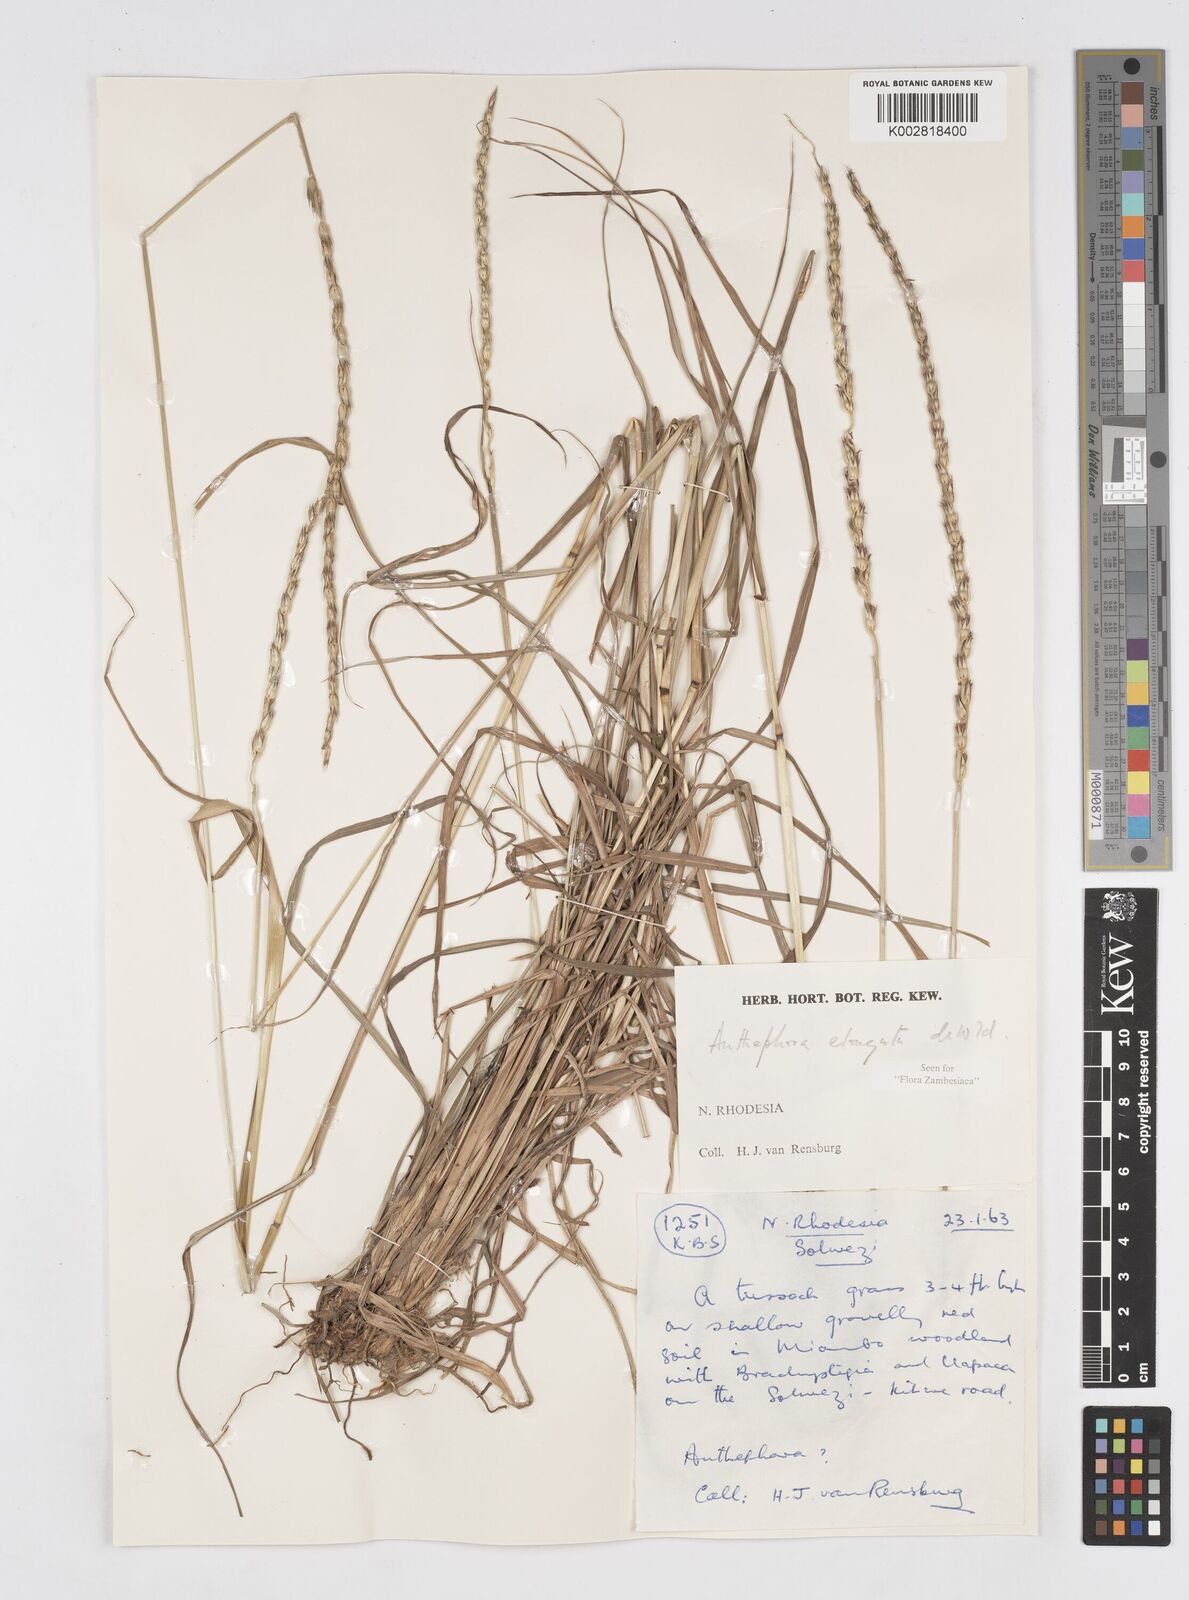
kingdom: Plantae
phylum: Tracheophyta
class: Liliopsida
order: Poales
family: Poaceae
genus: Anthephora
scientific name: Anthephora elongata
